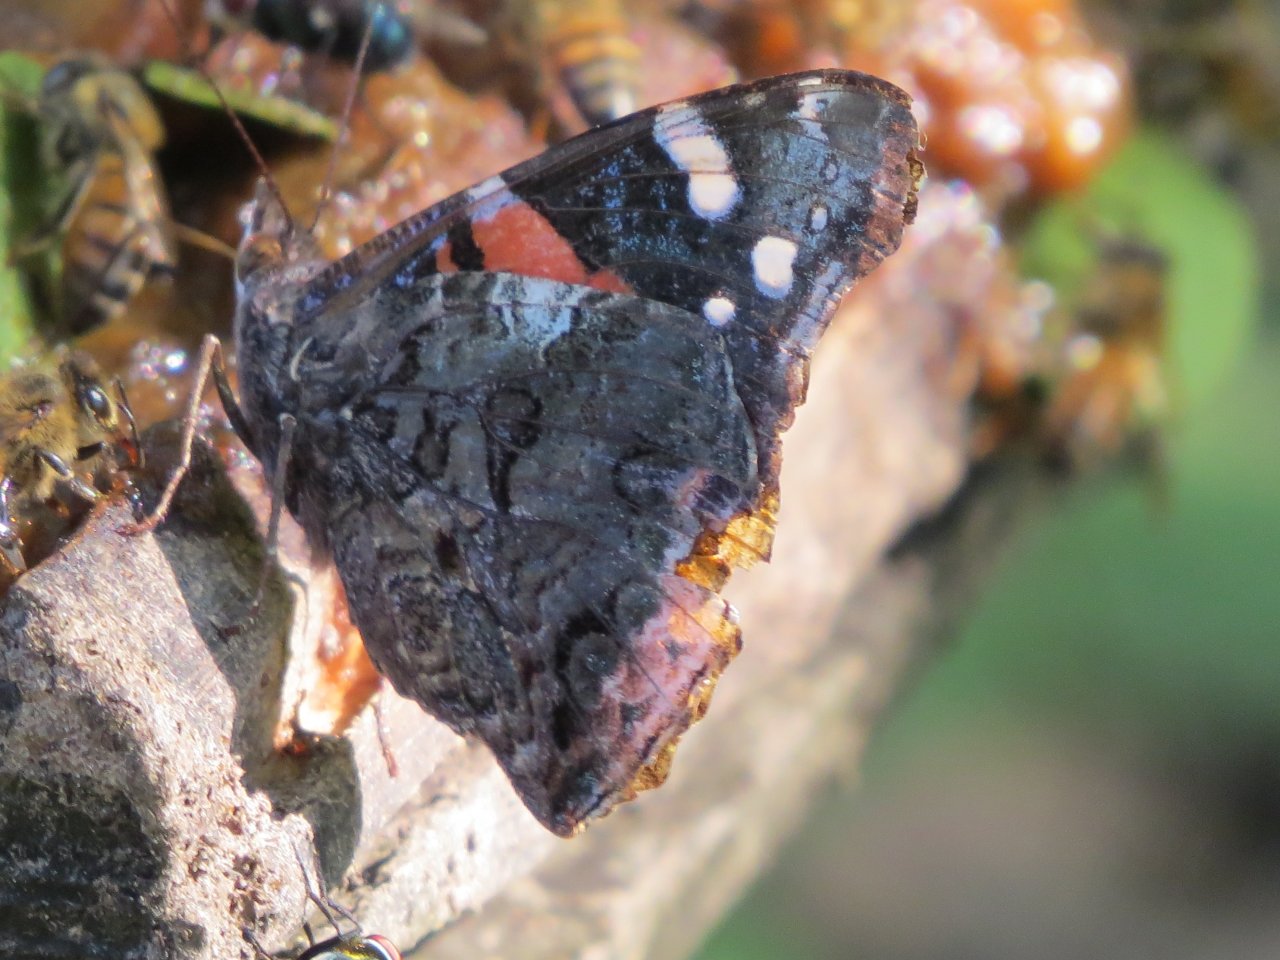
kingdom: Animalia
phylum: Arthropoda
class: Insecta
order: Lepidoptera
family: Nymphalidae
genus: Vanessa
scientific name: Vanessa atalanta
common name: Red Admiral
